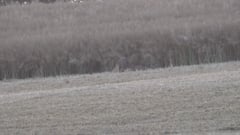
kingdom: Animalia
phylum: Chordata
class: Mammalia
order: Artiodactyla
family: Suidae
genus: Sus
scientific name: Sus scrofa
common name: Wild boar
